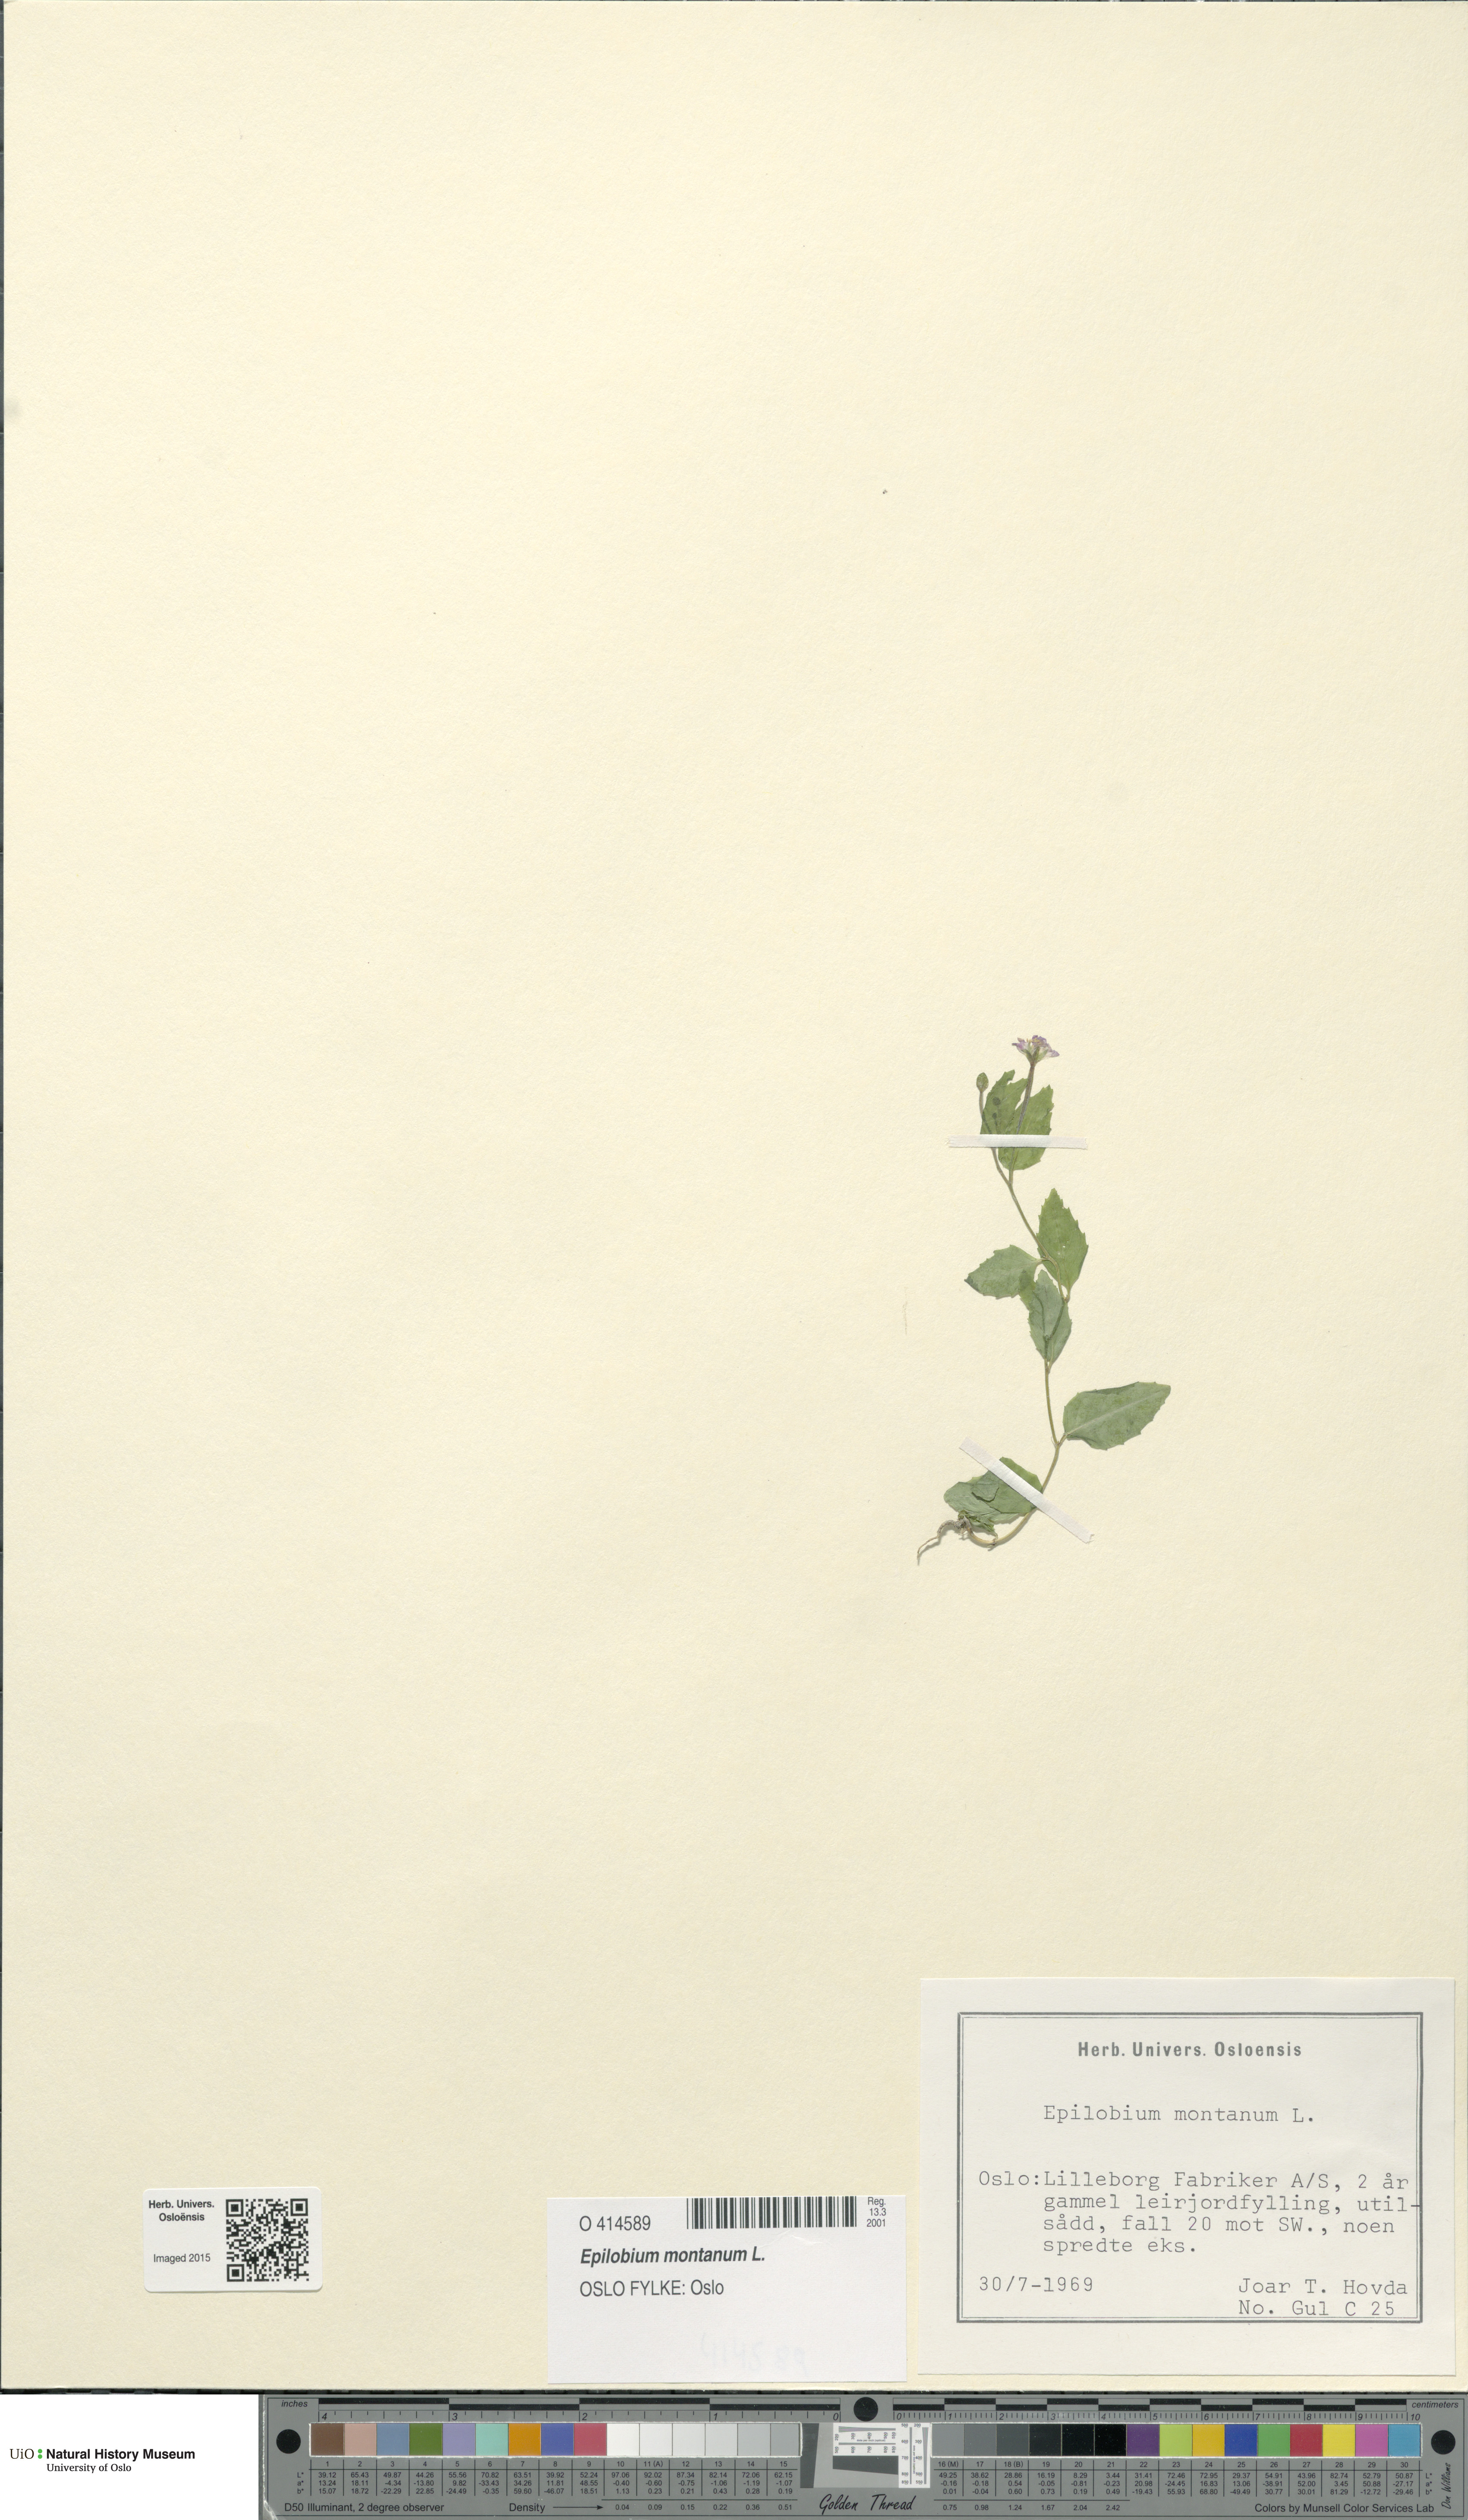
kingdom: Plantae
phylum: Tracheophyta
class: Magnoliopsida
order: Myrtales
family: Onagraceae
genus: Epilobium
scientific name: Epilobium montanum
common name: Broad-leaved willowherb
